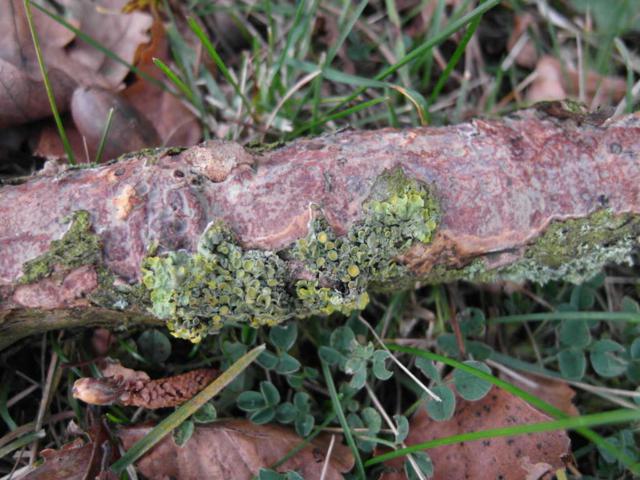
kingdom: Fungi
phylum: Basidiomycota
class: Agaricomycetes
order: Corticiales
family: Vuilleminiaceae
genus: Vuilleminia
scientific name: Vuilleminia comedens
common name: almindelig barksprænger
